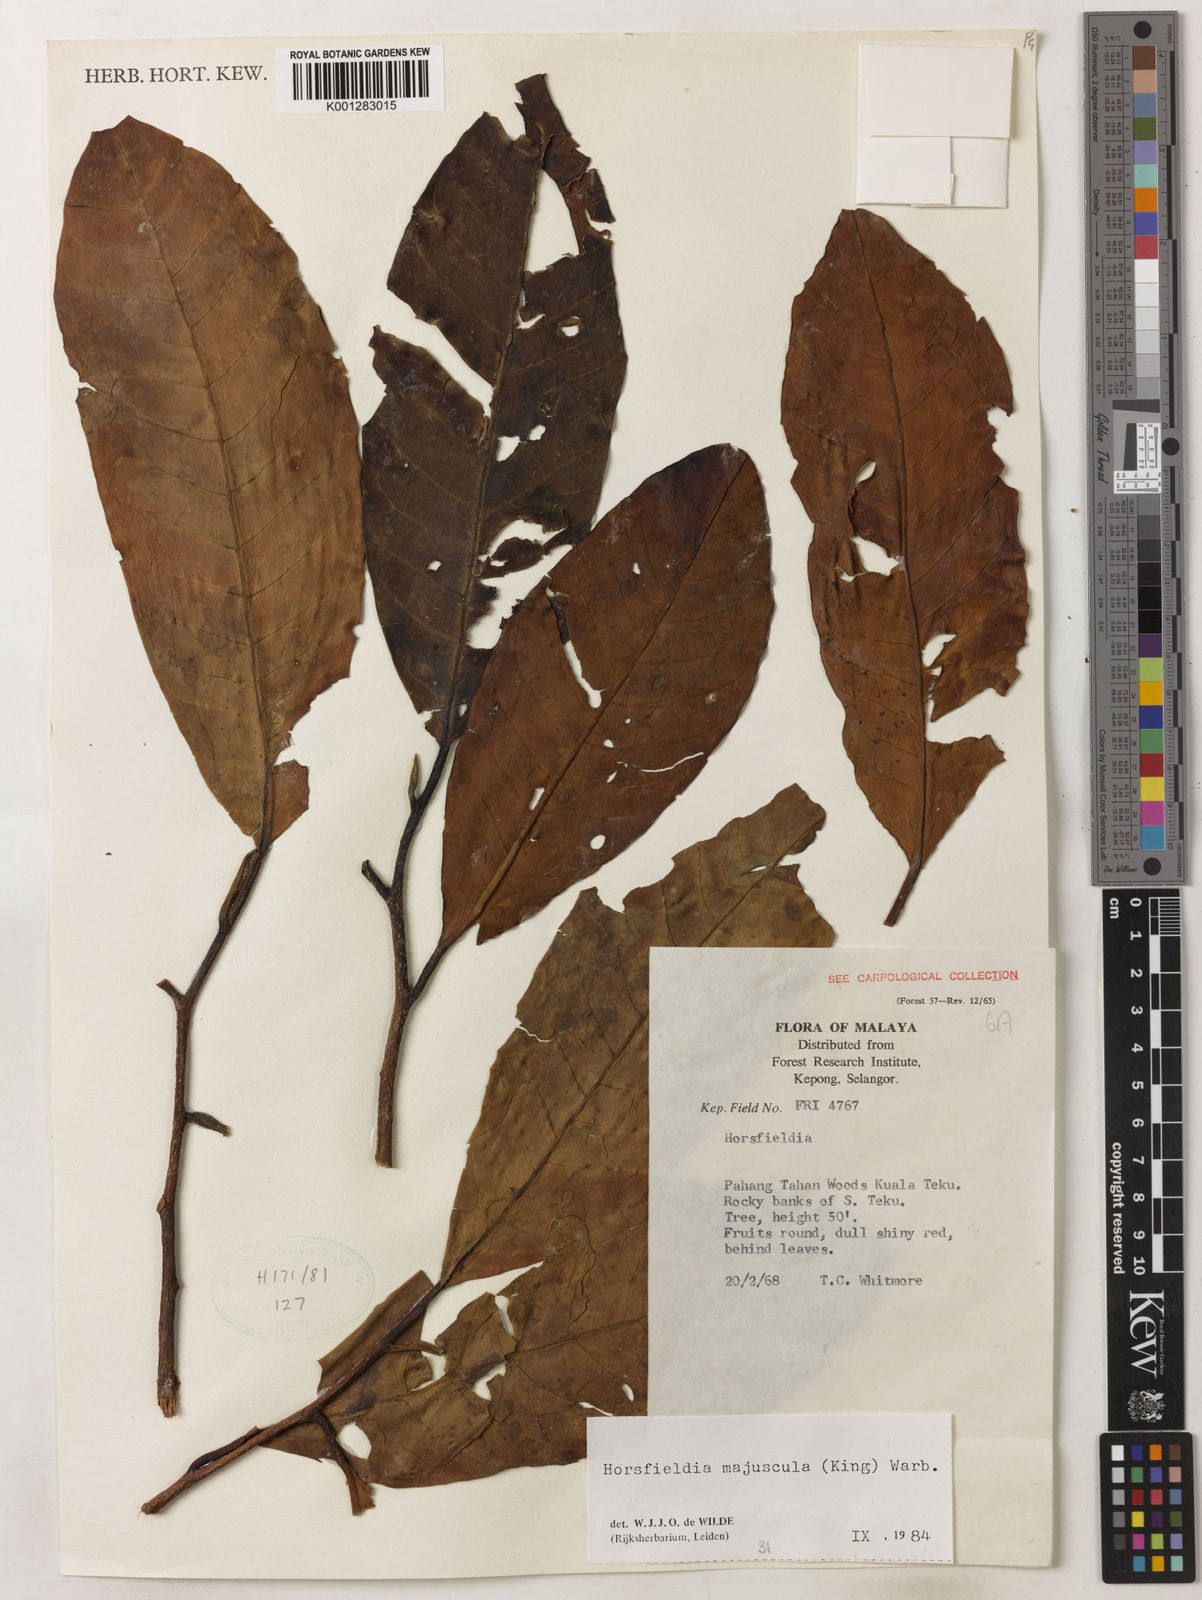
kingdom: Plantae
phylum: Tracheophyta
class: Magnoliopsida
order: Magnoliales
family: Myristicaceae
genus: Horsfieldia
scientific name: Horsfieldia majuscula
